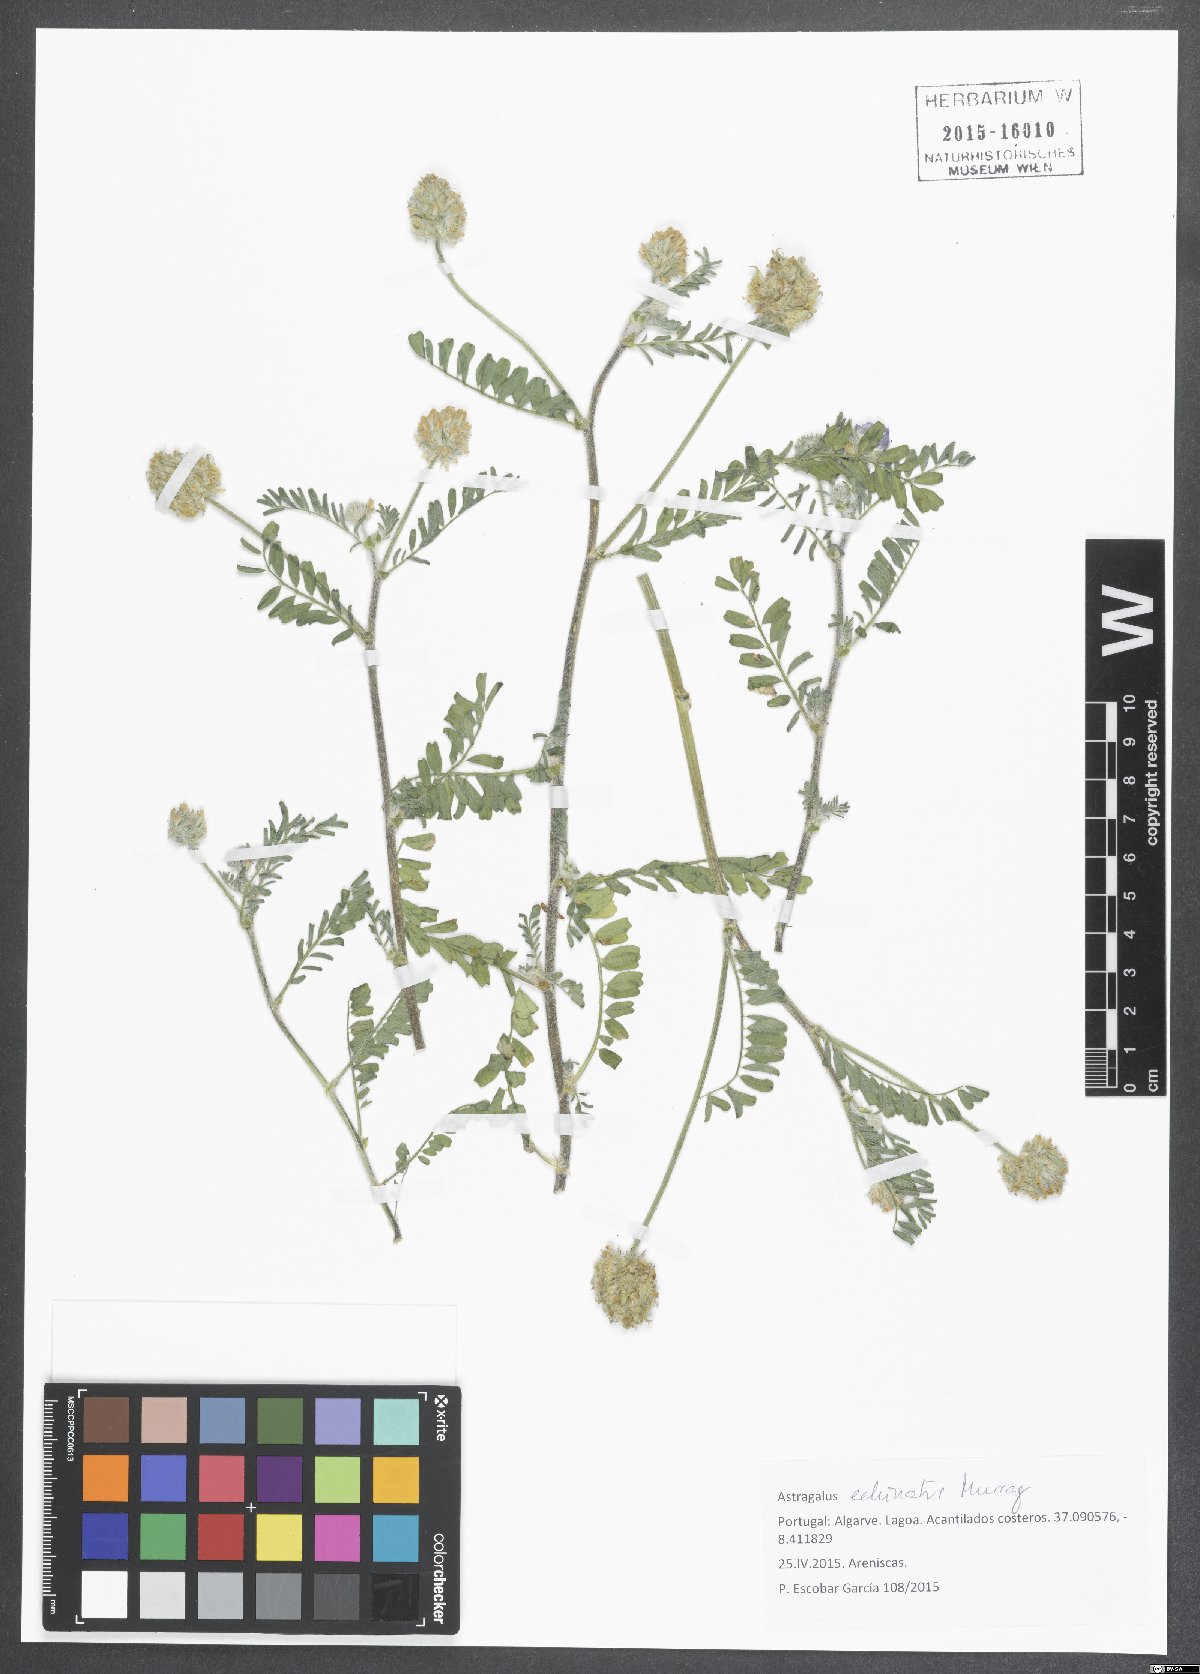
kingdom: Plantae
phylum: Tracheophyta
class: Magnoliopsida
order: Fabales
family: Fabaceae
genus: Astragalus
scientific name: Astragalus echinatus
